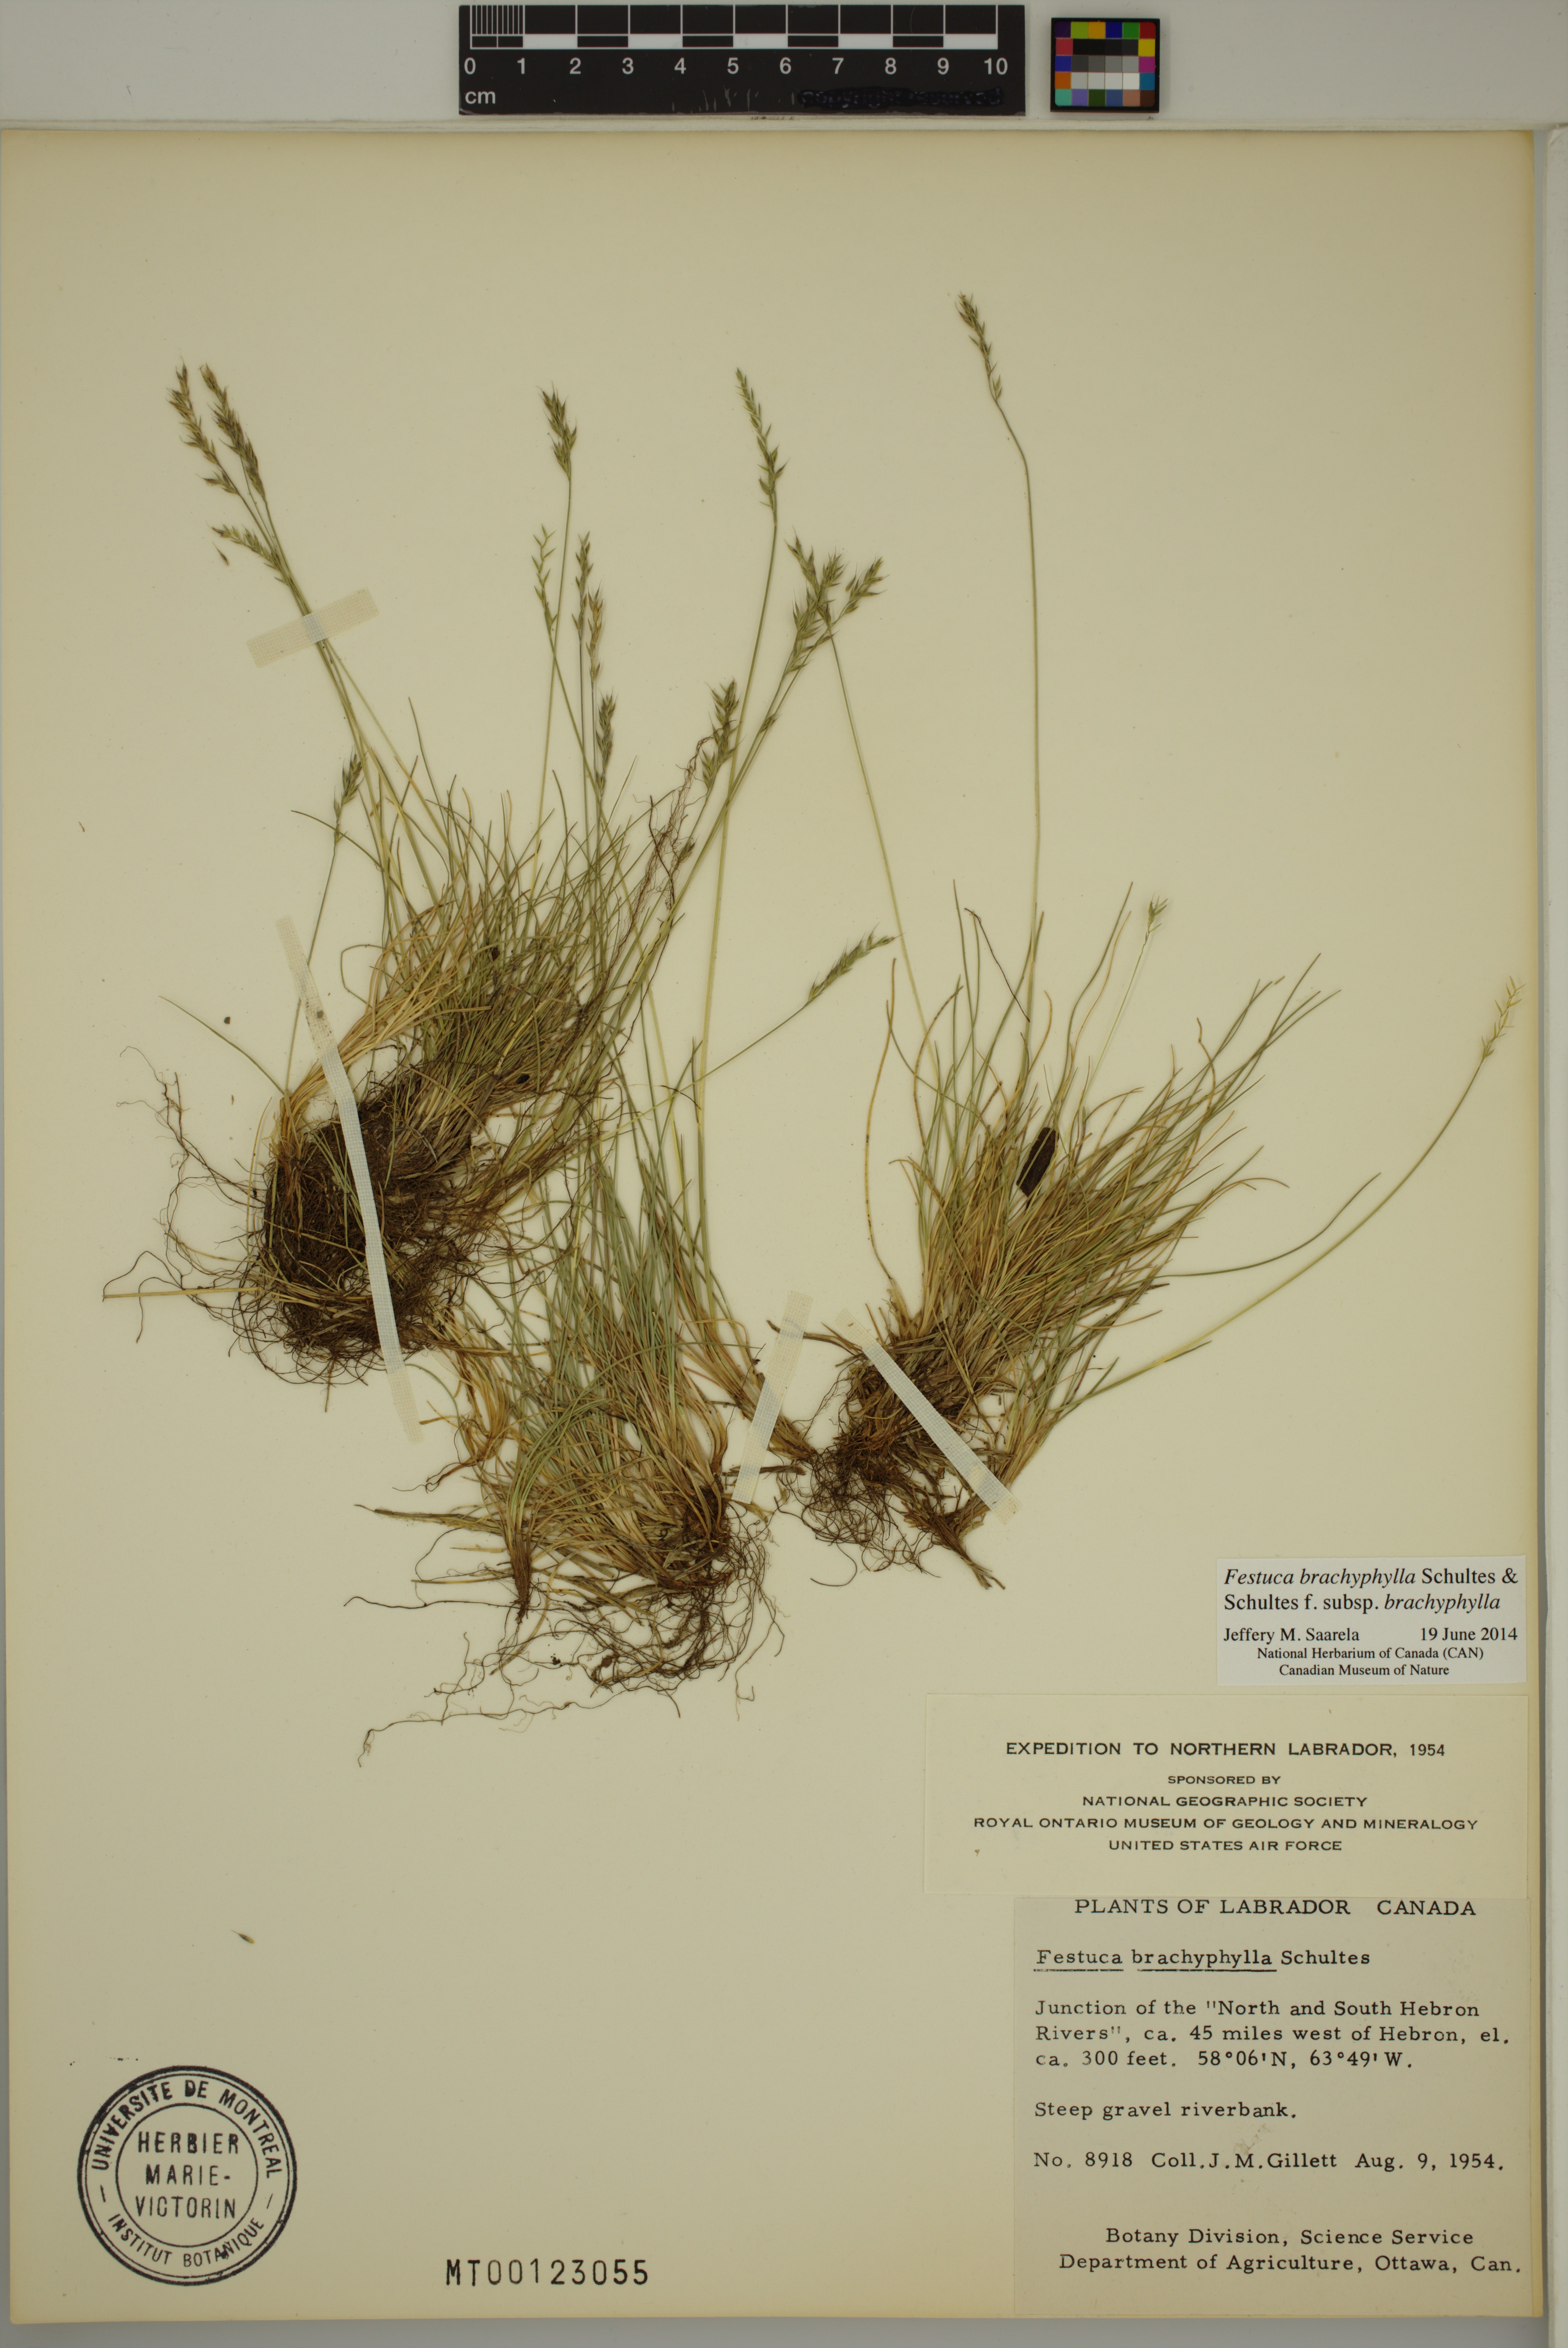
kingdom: Plantae
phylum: Tracheophyta
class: Liliopsida
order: Poales
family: Poaceae
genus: Festuca
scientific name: Festuca brachyphylla
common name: Alpine fescue
